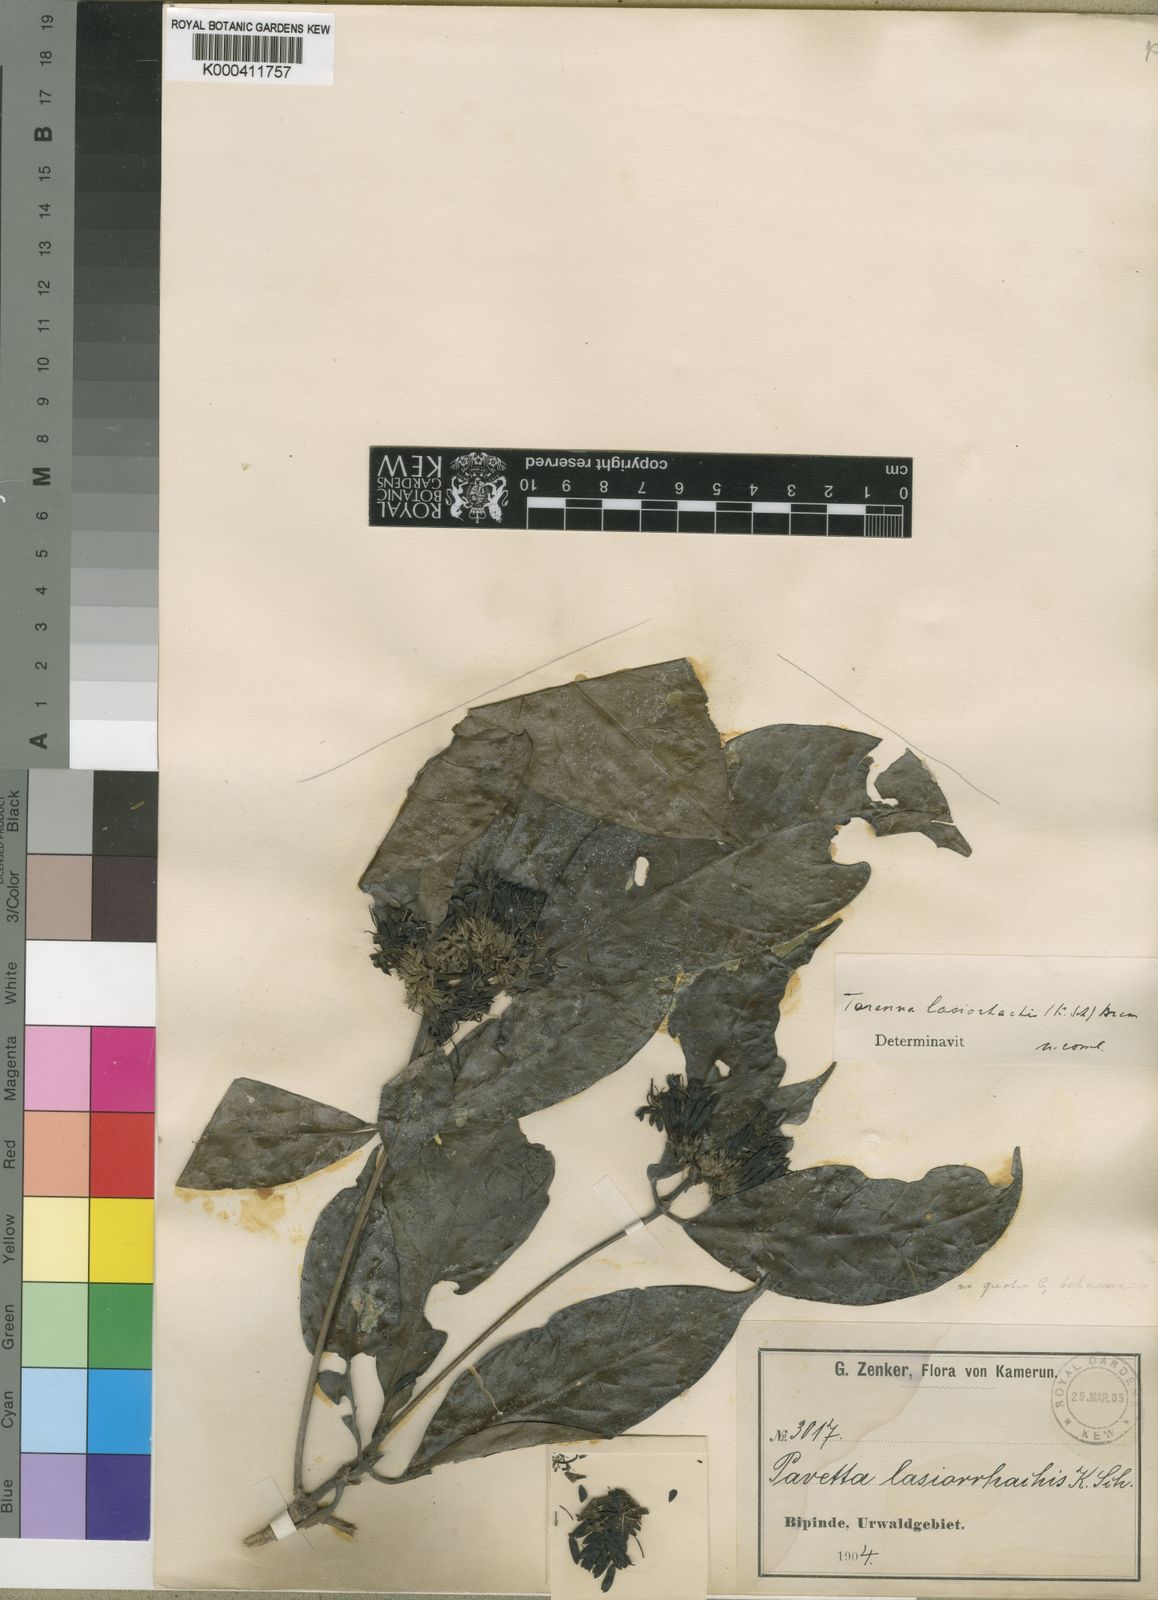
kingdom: Plantae
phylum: Tracheophyta
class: Magnoliopsida
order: Gentianales
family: Rubiaceae
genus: Tarenna
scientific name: Tarenna lasiorhachis
